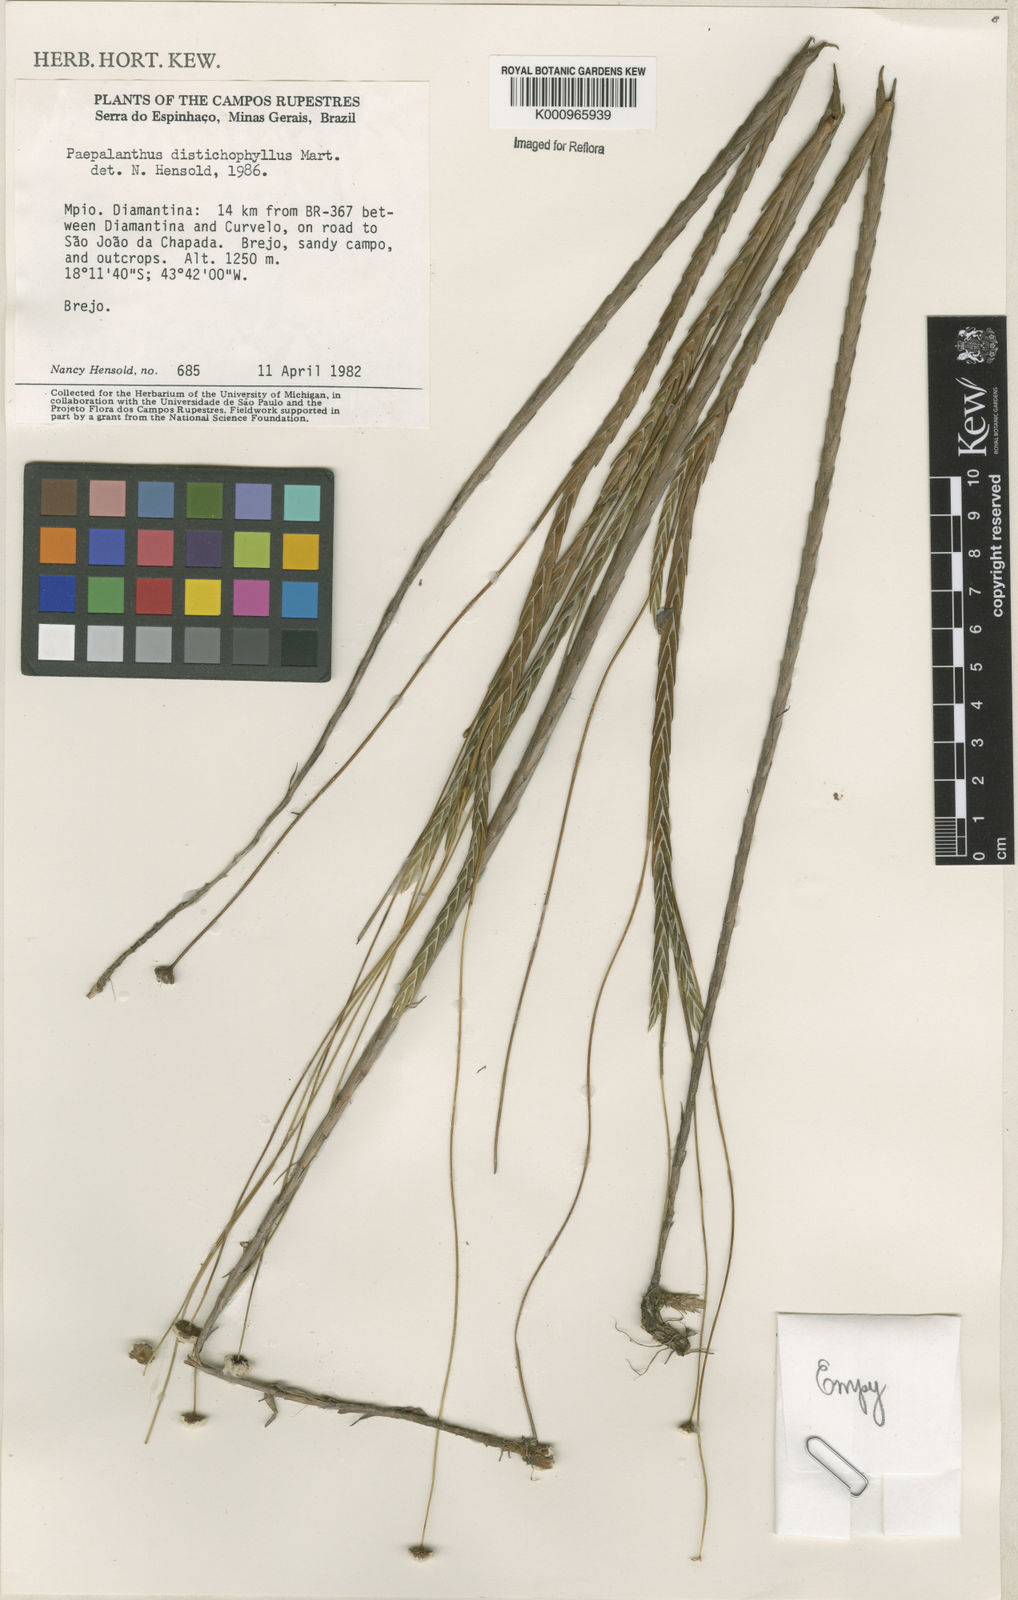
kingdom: Plantae
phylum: Tracheophyta
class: Liliopsida
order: Poales
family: Eriocaulaceae
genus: Paepalanthus
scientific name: Paepalanthus distichophyllus
